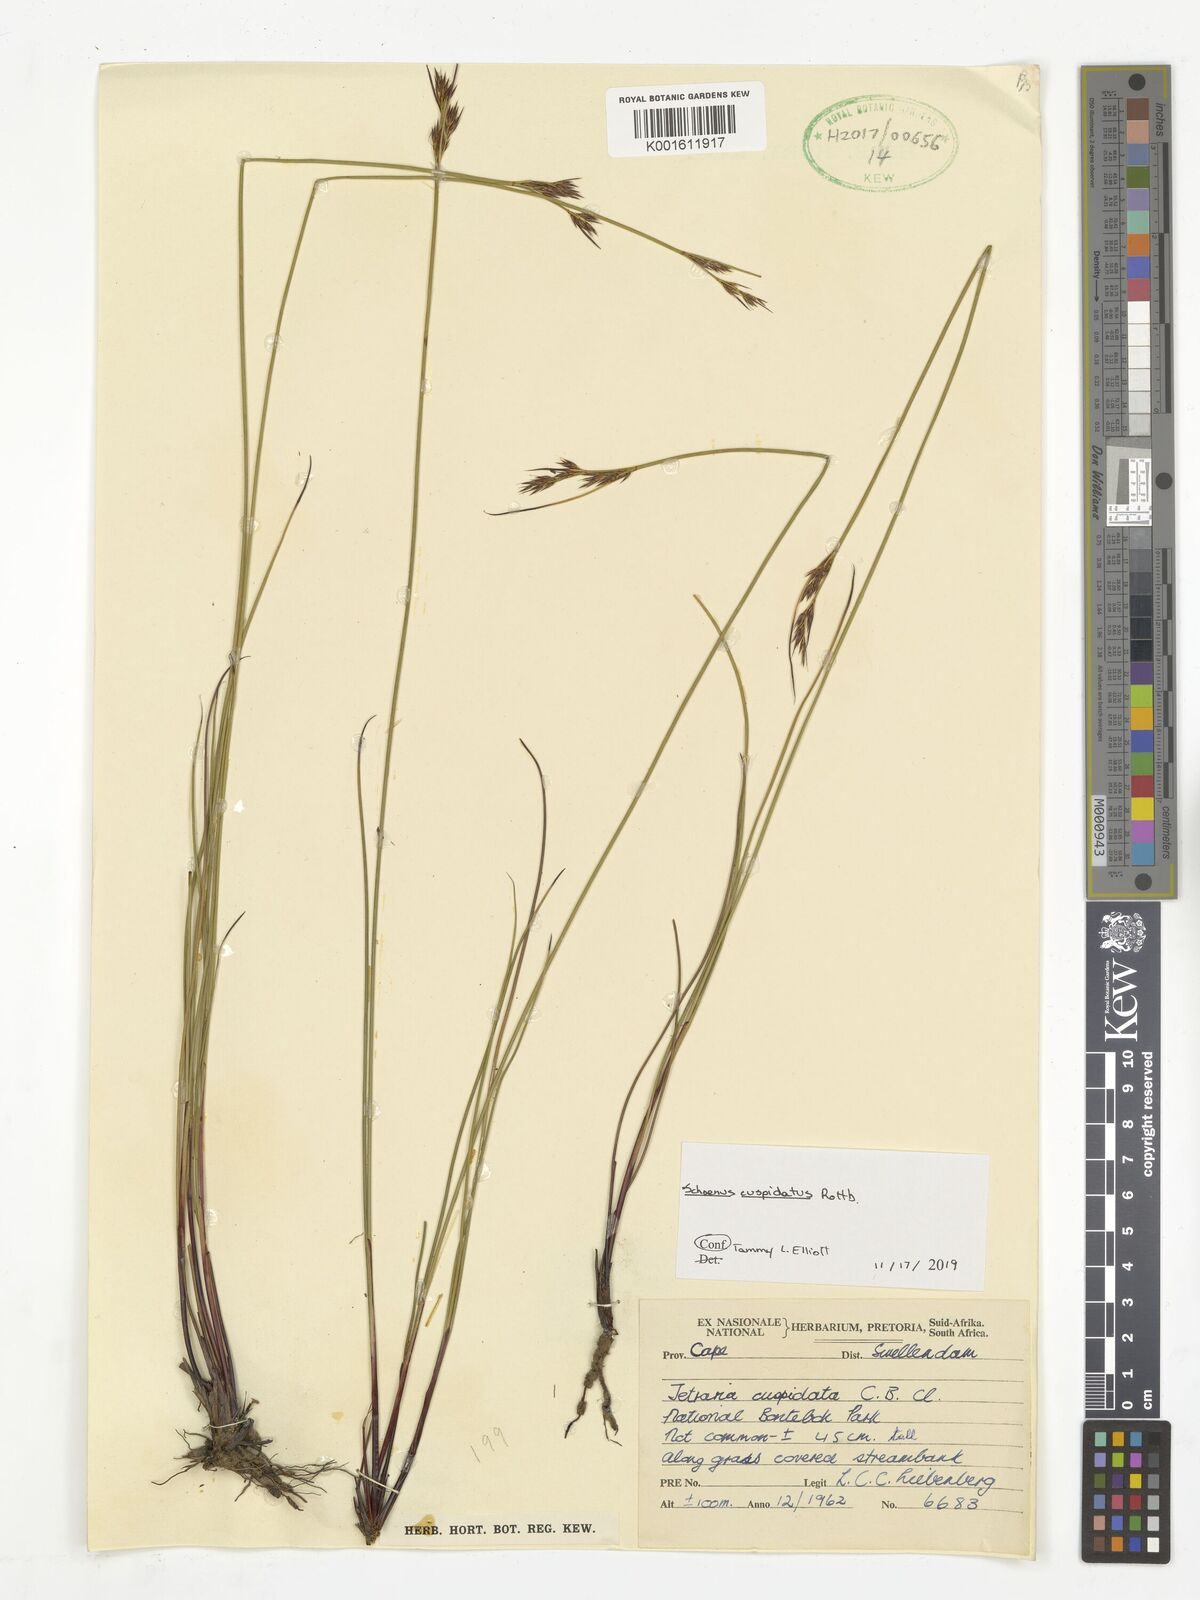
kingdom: Plantae
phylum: Tracheophyta
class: Liliopsida
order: Poales
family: Cyperaceae
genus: Schoenus
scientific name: Schoenus cuspidatus
